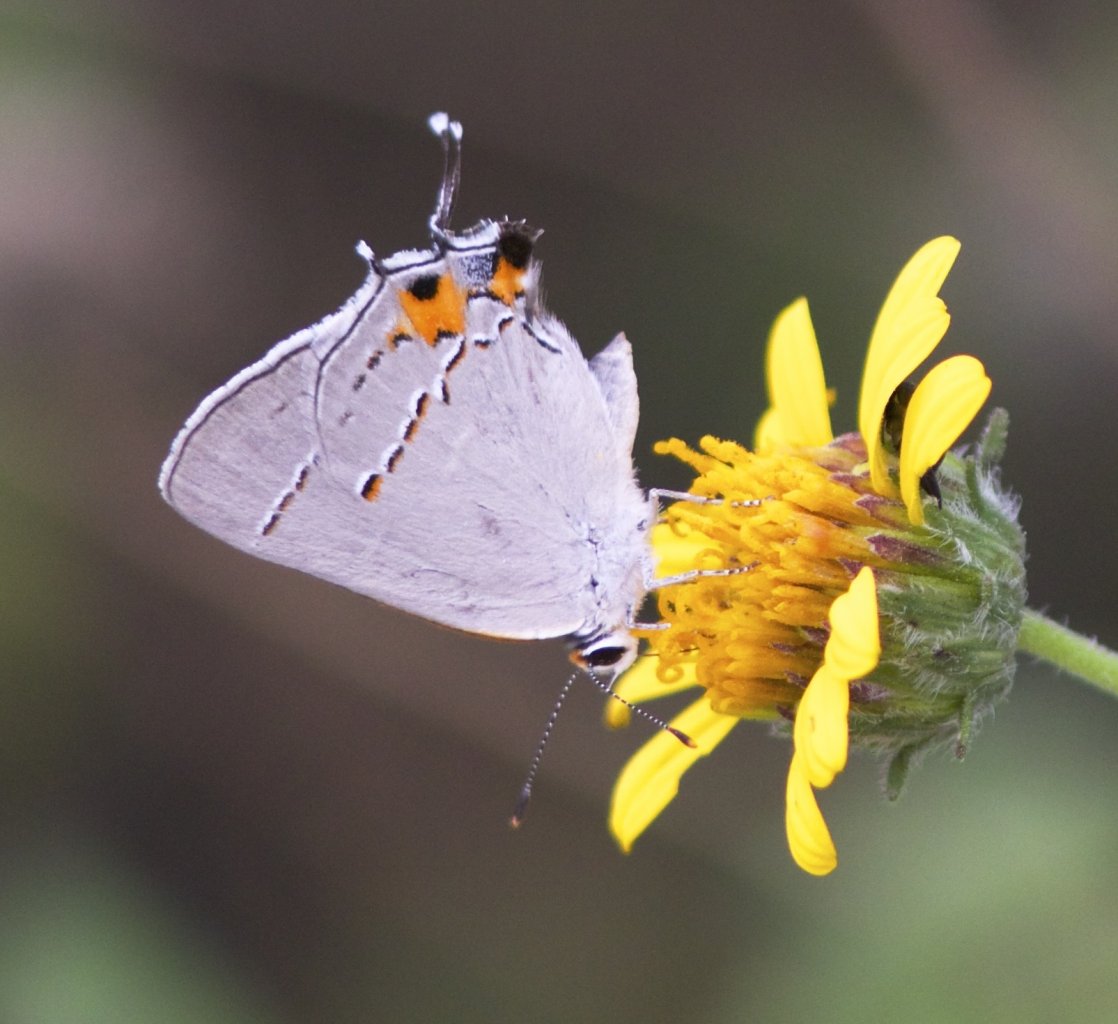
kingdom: Animalia
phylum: Arthropoda
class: Insecta
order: Lepidoptera
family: Lycaenidae
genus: Strymon
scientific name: Strymon melinus
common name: Gray Hairstreak
